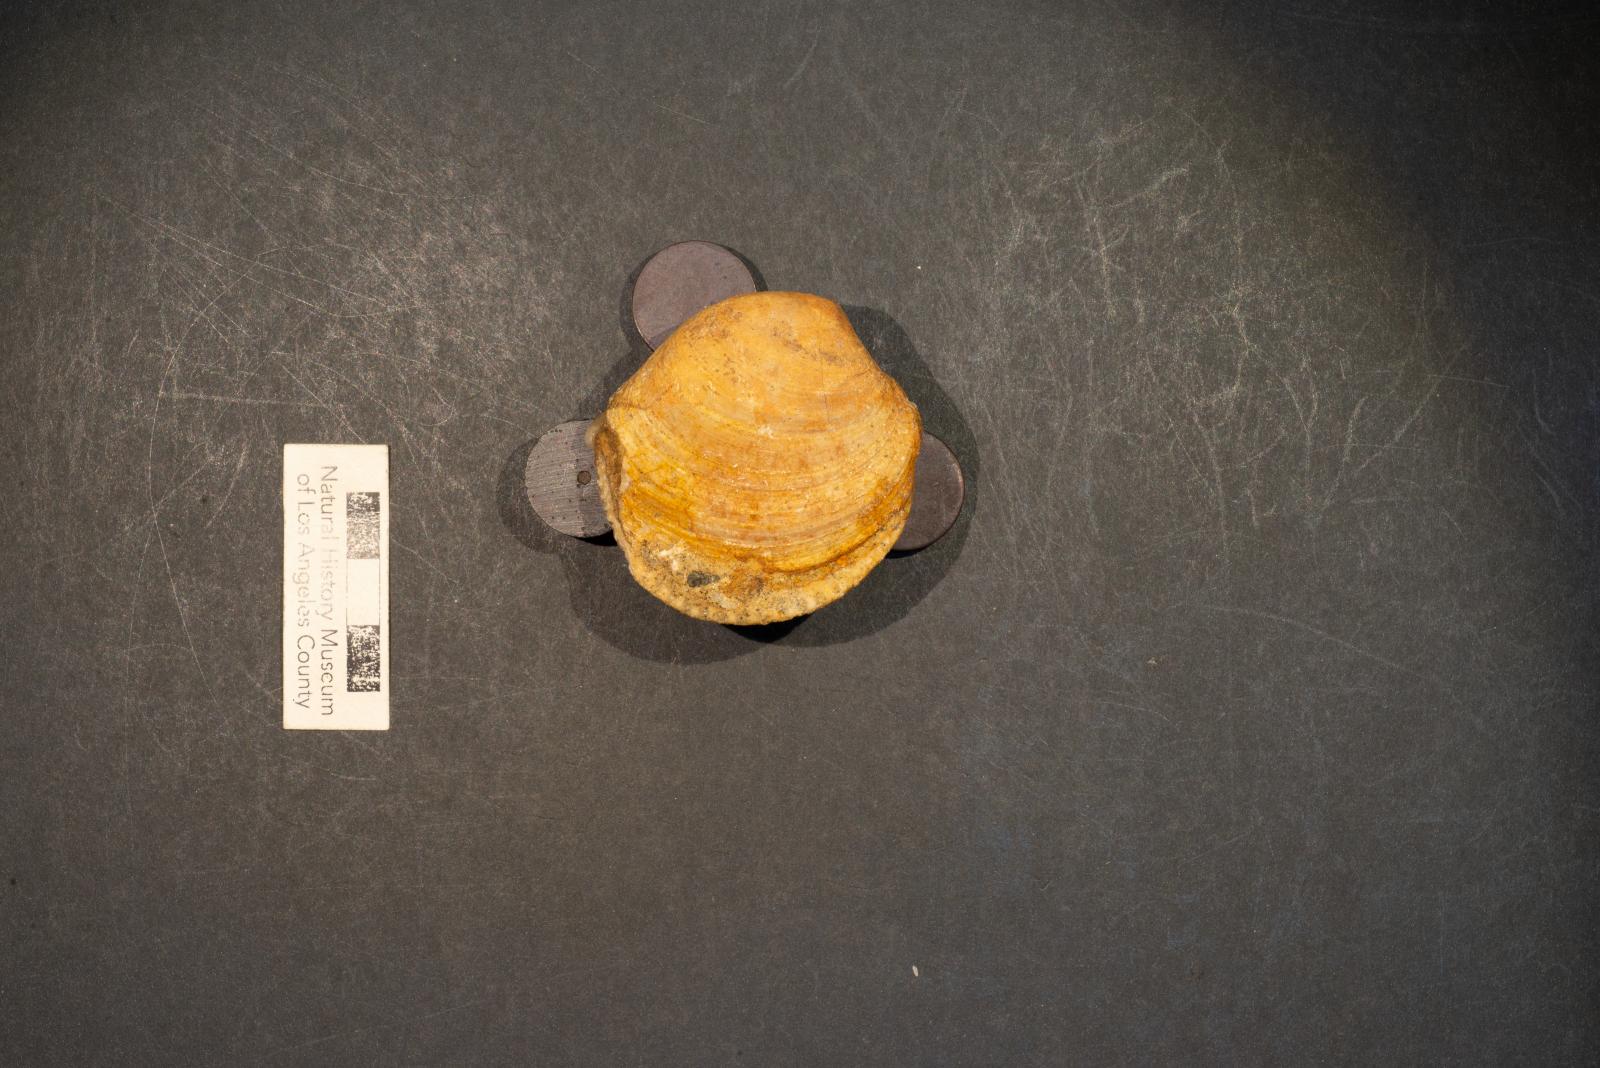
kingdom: Animalia
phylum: Mollusca
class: Bivalvia
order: Venerida
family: Veneridae
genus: Loxo
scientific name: Loxo quintense
